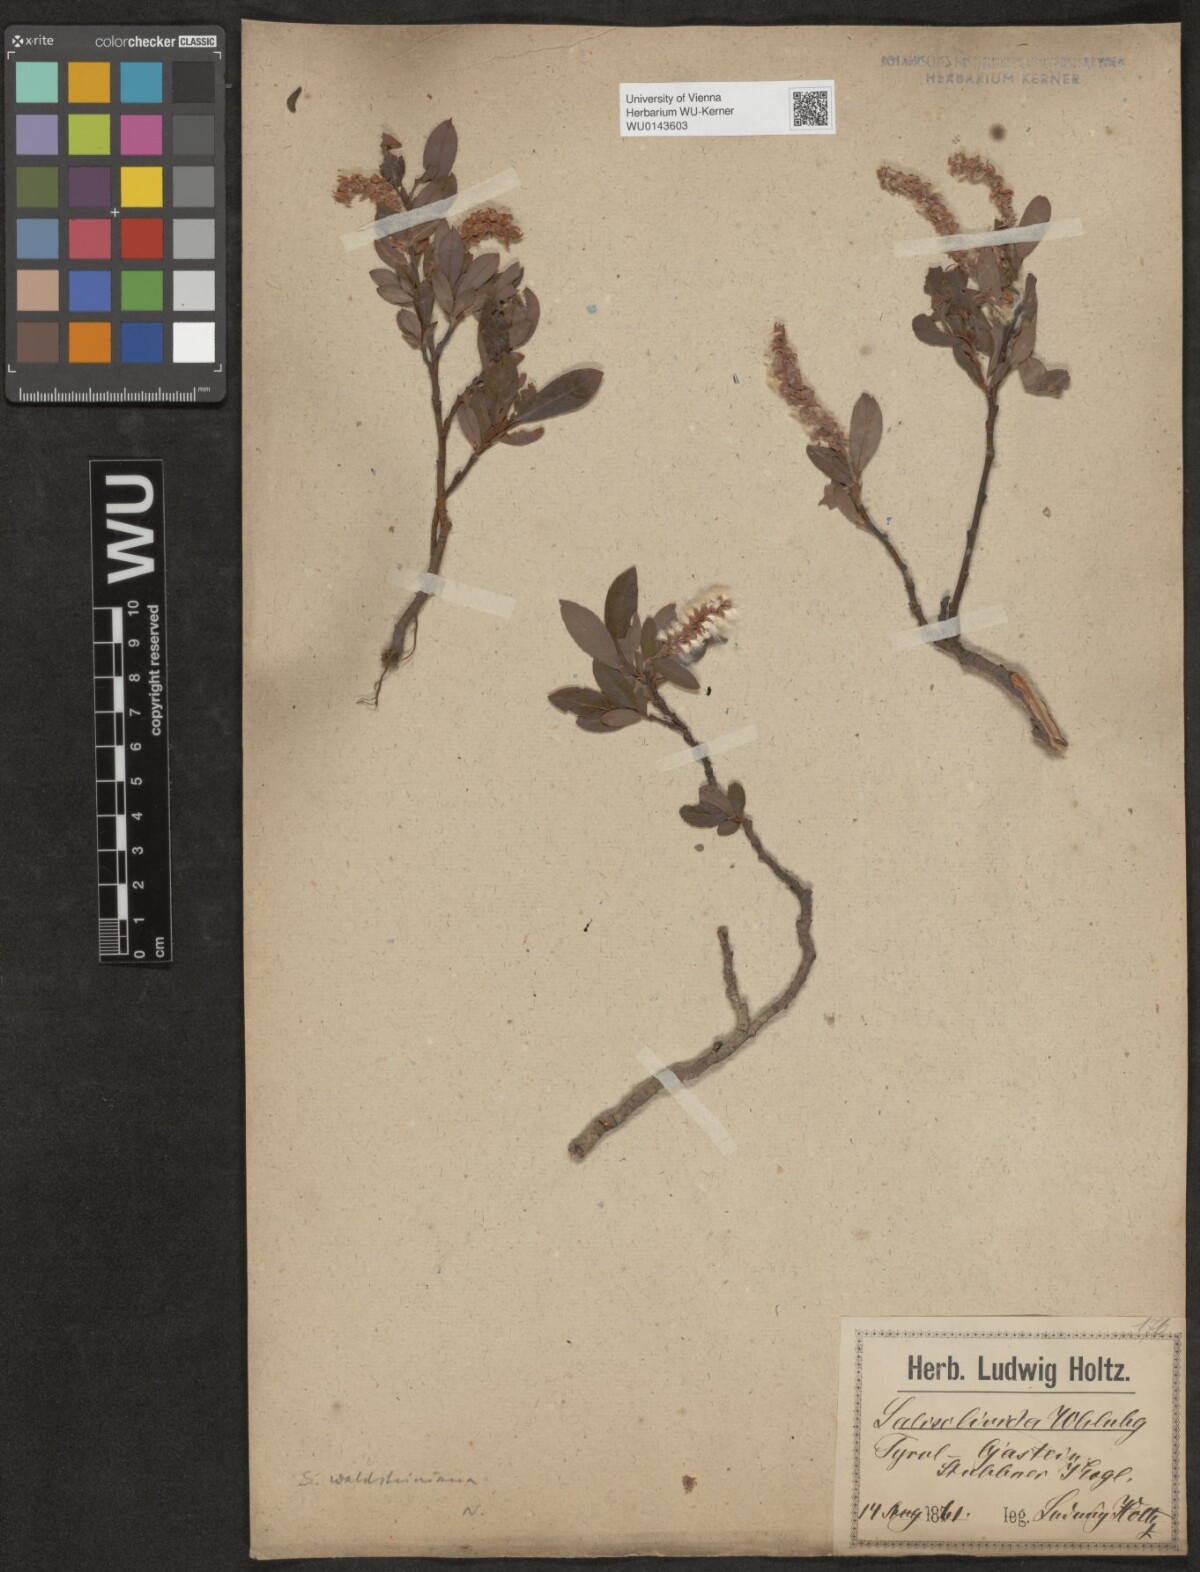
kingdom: Plantae
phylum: Tracheophyta
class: Magnoliopsida
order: Malpighiales
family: Salicaceae
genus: Salix
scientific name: Salix waldsteiniana
